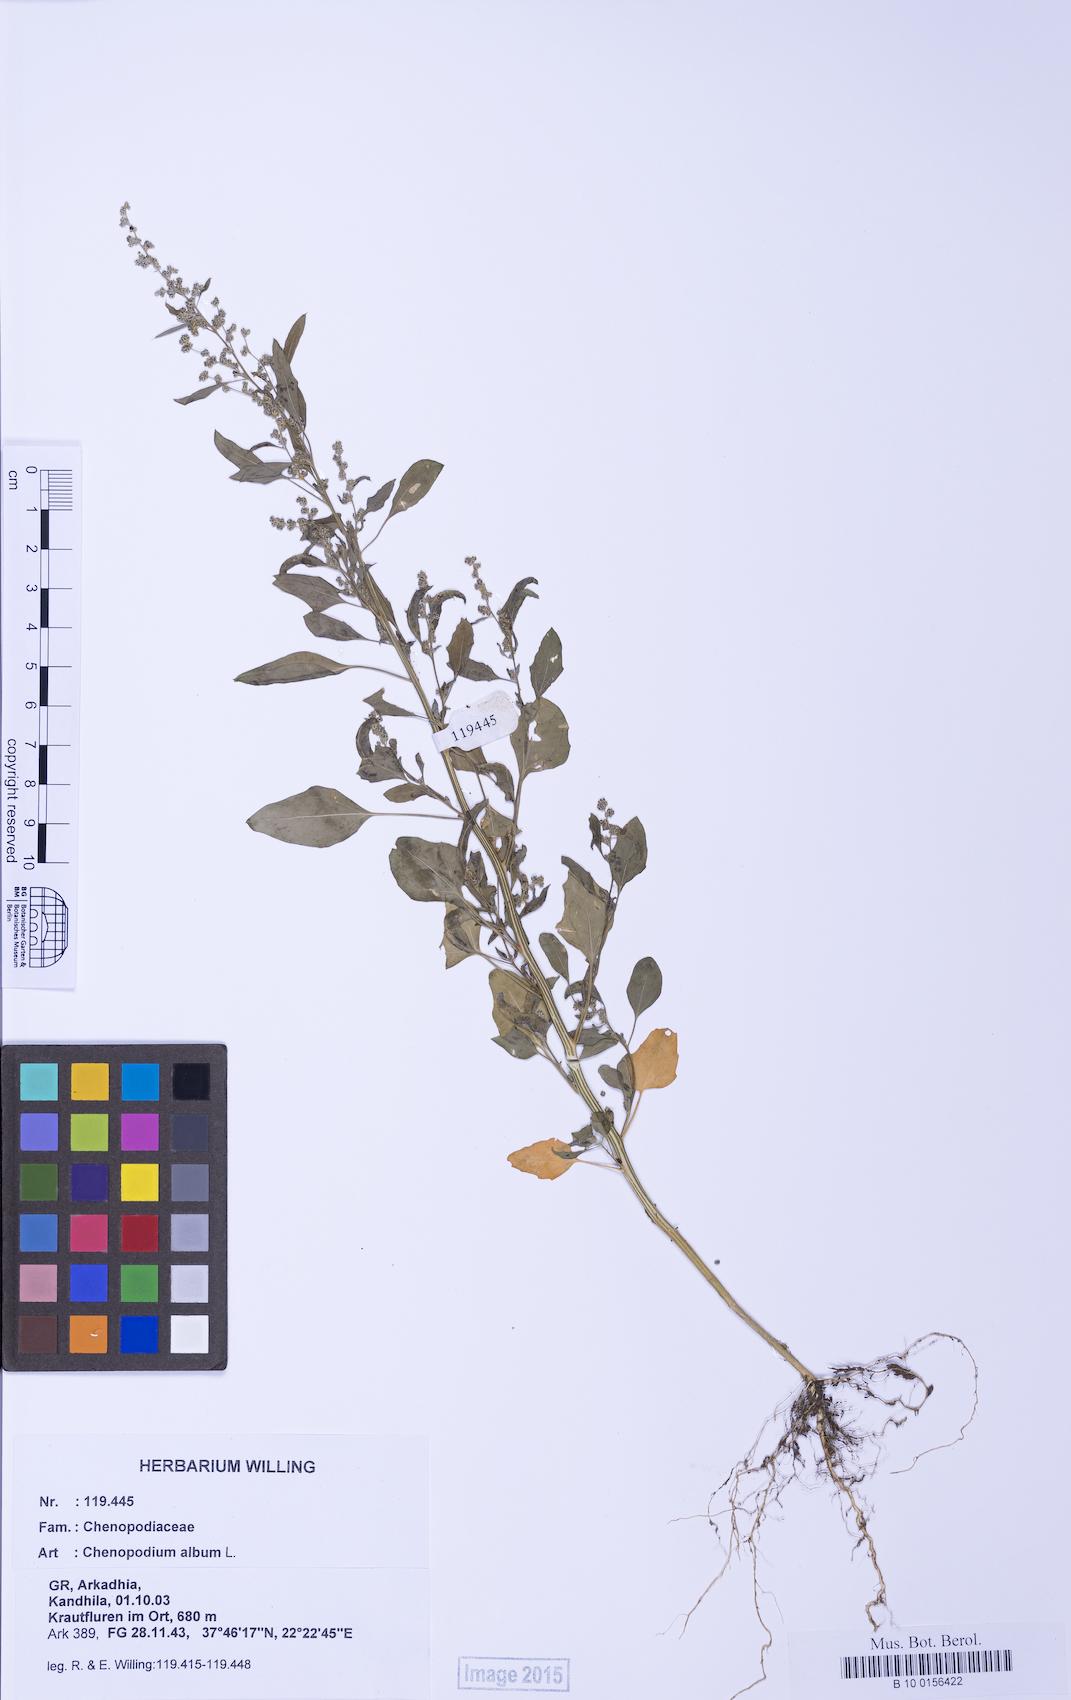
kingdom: Plantae
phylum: Tracheophyta
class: Magnoliopsida
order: Caryophyllales
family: Amaranthaceae
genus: Chenopodium
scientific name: Chenopodium album
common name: Fat-hen
